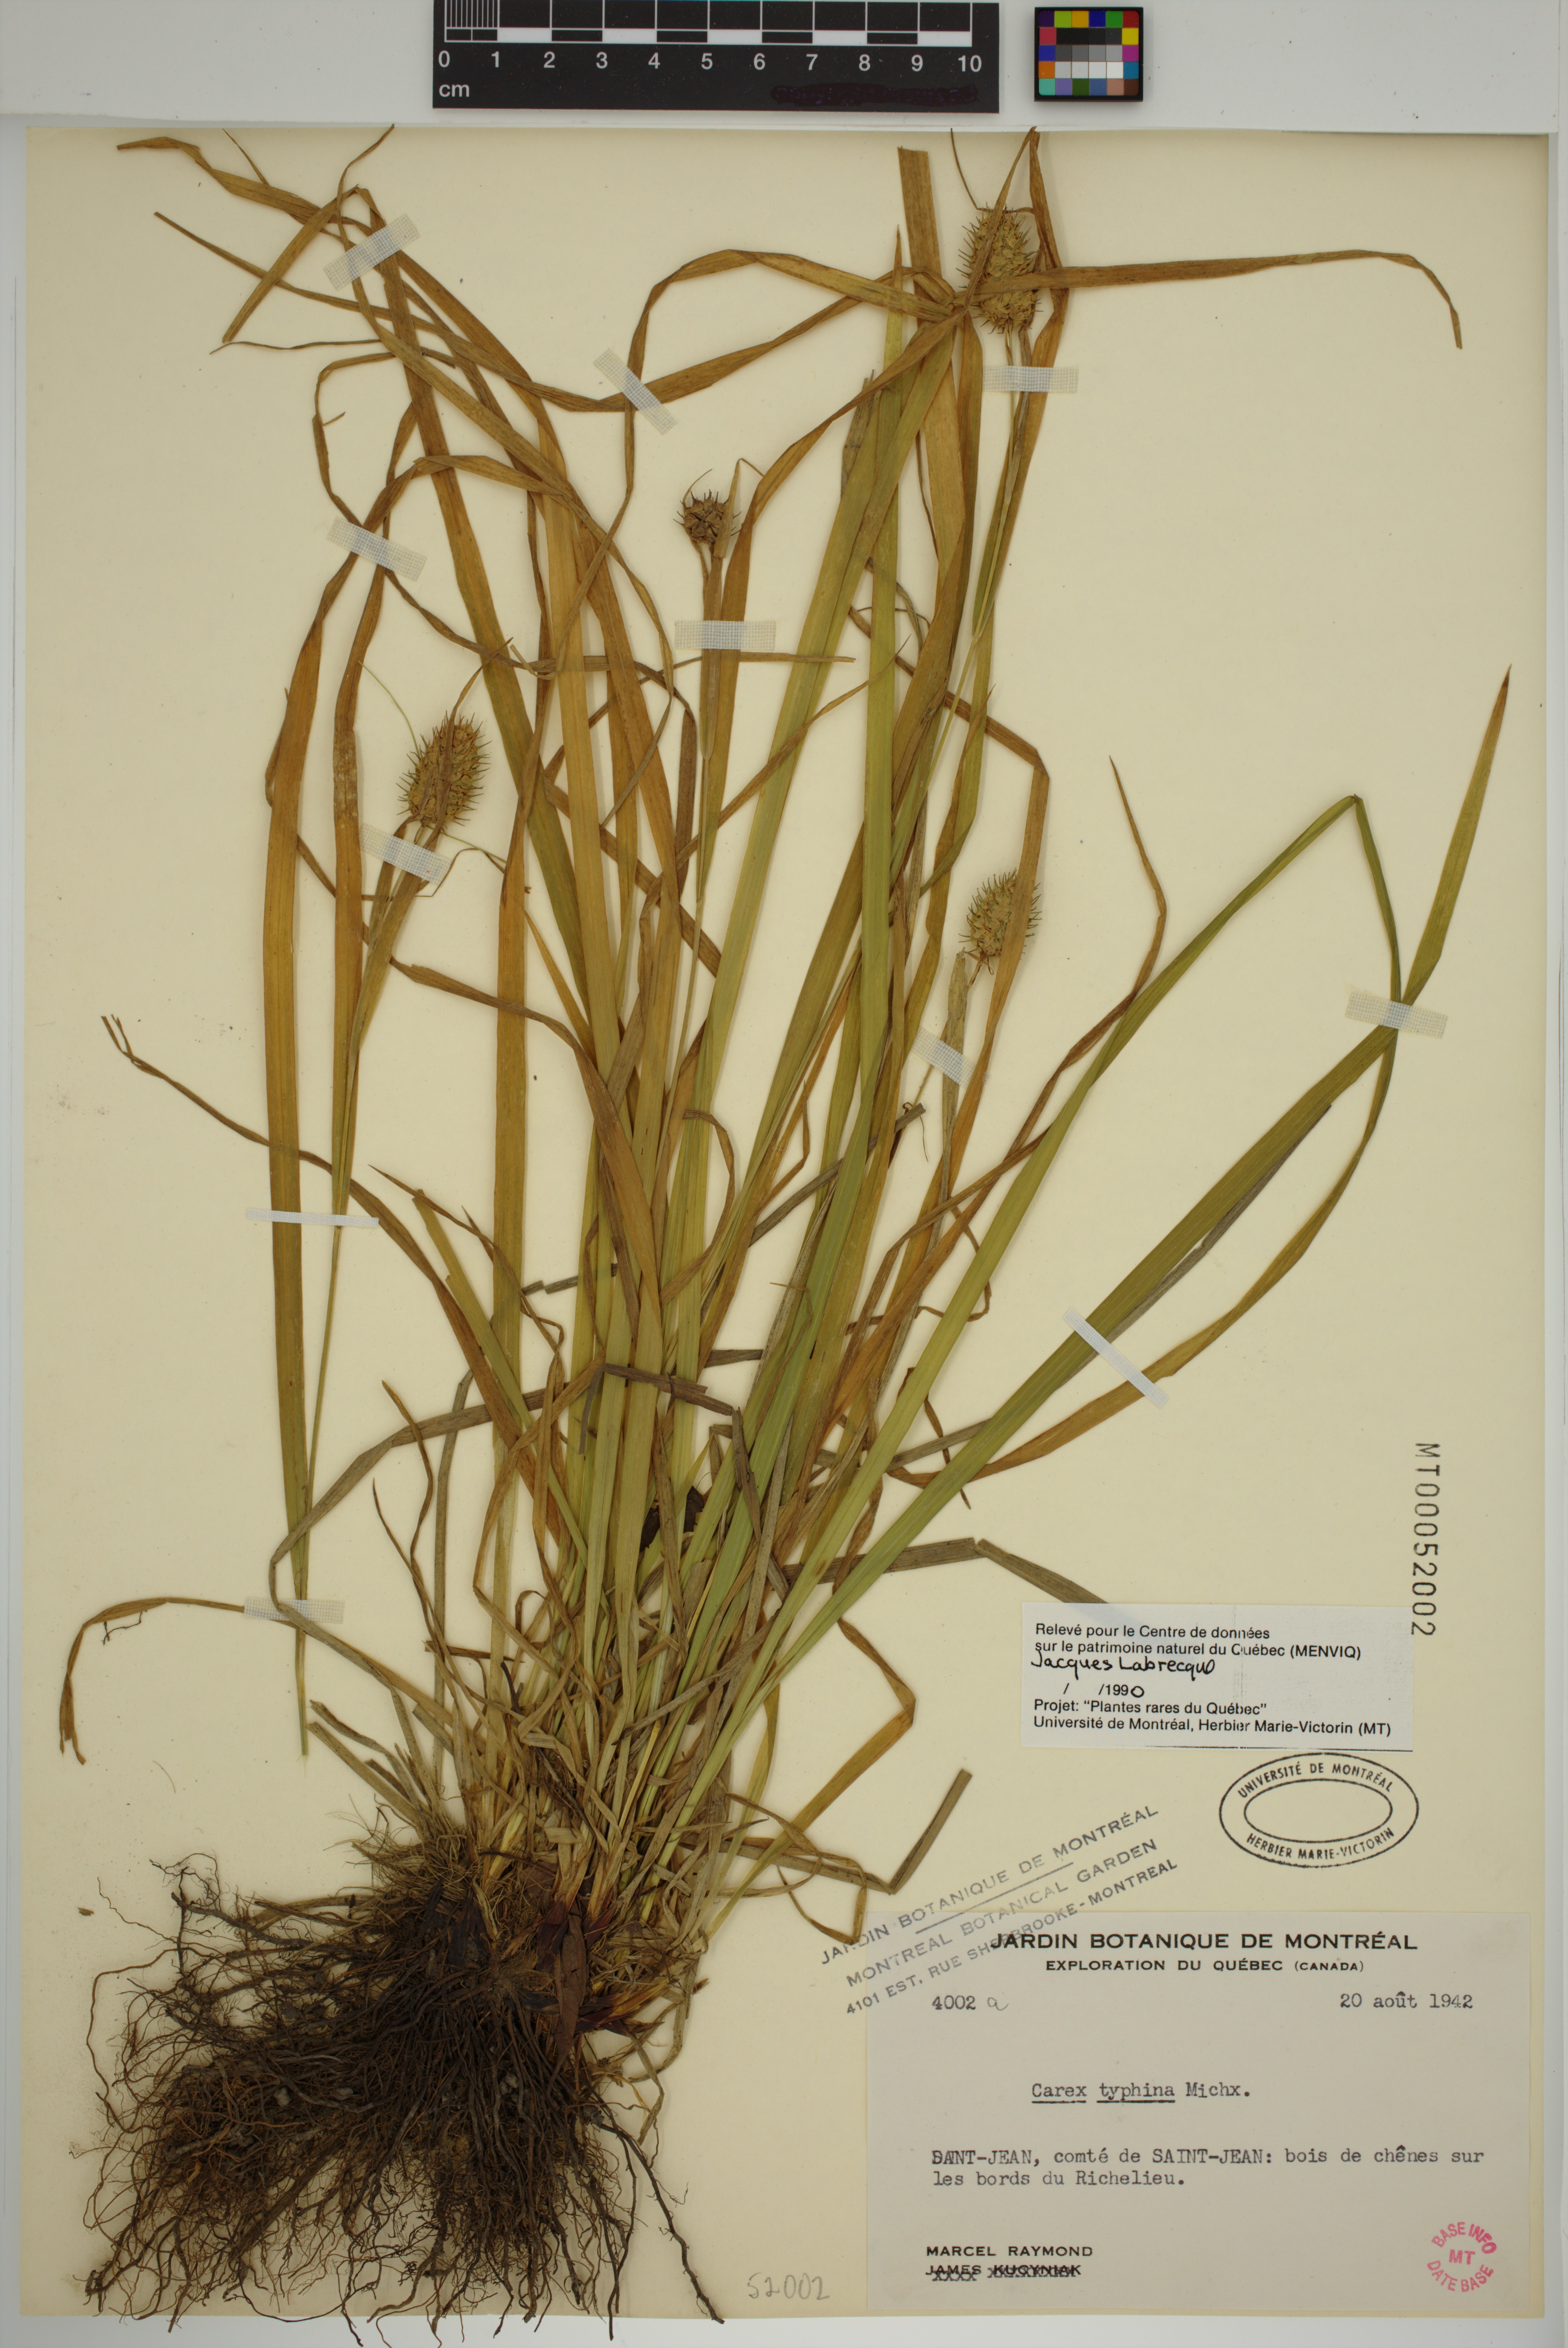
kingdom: Plantae
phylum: Tracheophyta
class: Liliopsida
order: Poales
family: Cyperaceae
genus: Carex
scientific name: Carex typhina
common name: Cattail sedge
